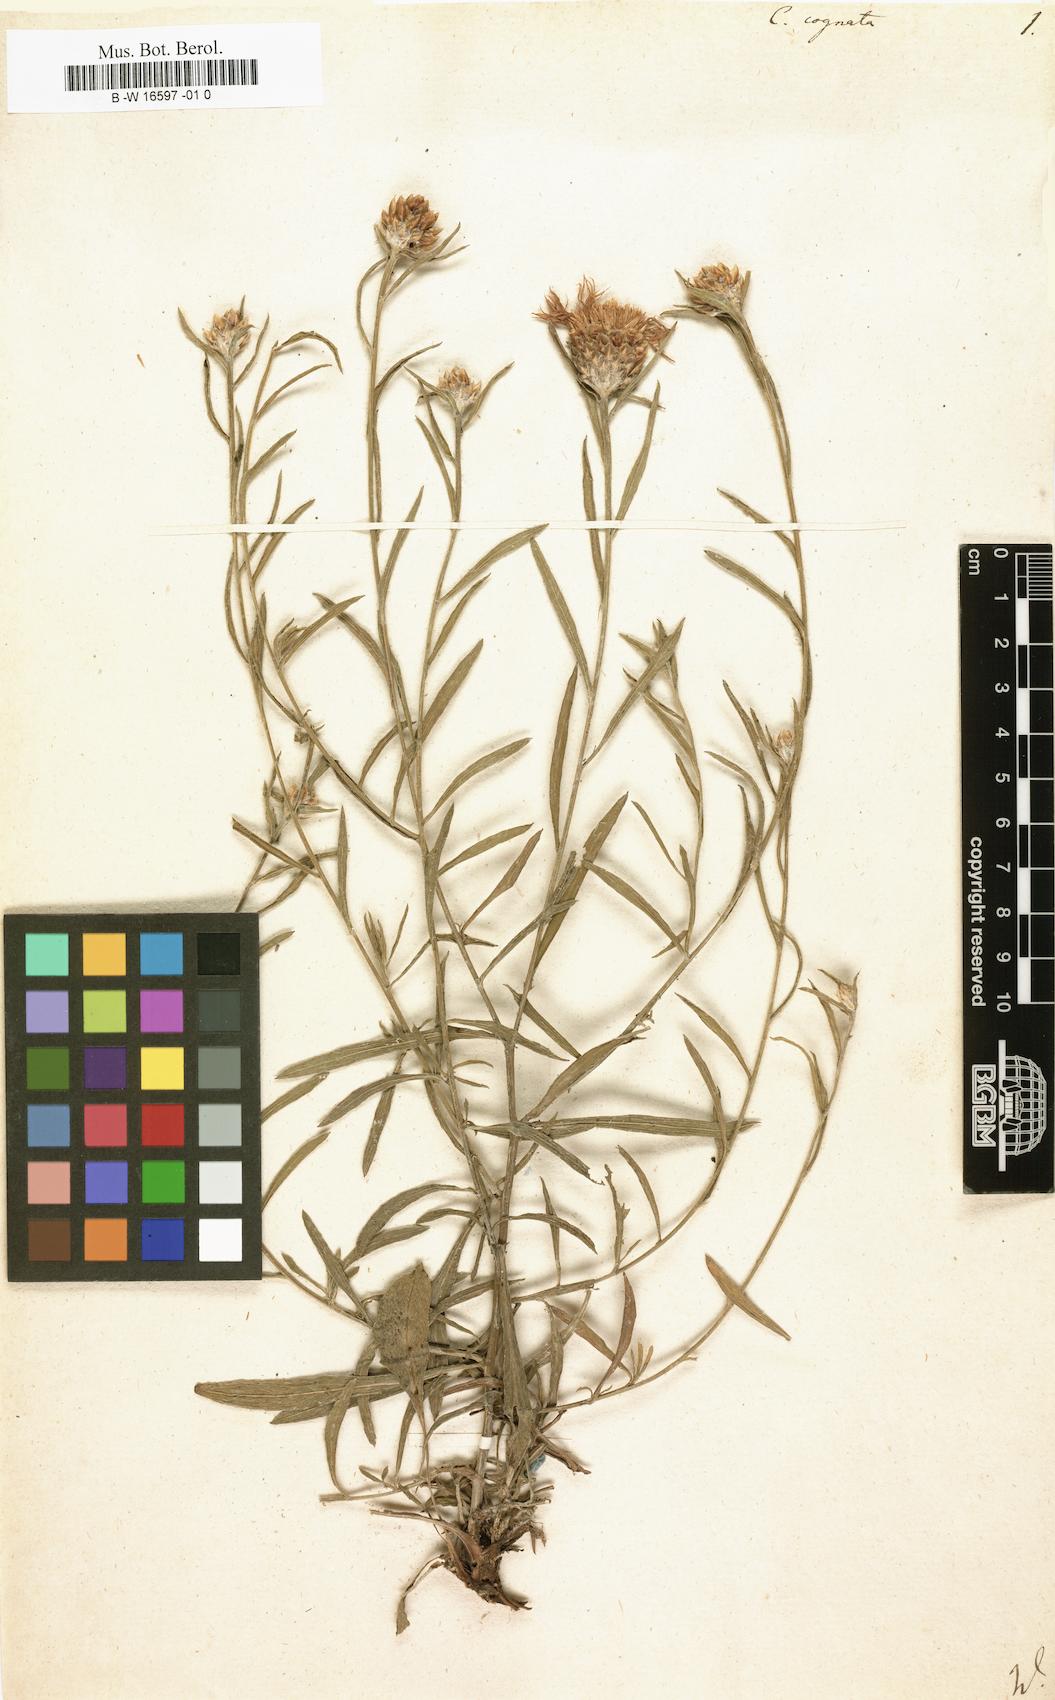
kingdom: Plantae
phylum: Tracheophyta
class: Magnoliopsida
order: Asterales
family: Asteraceae
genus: Centaurea
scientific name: Centaurea
